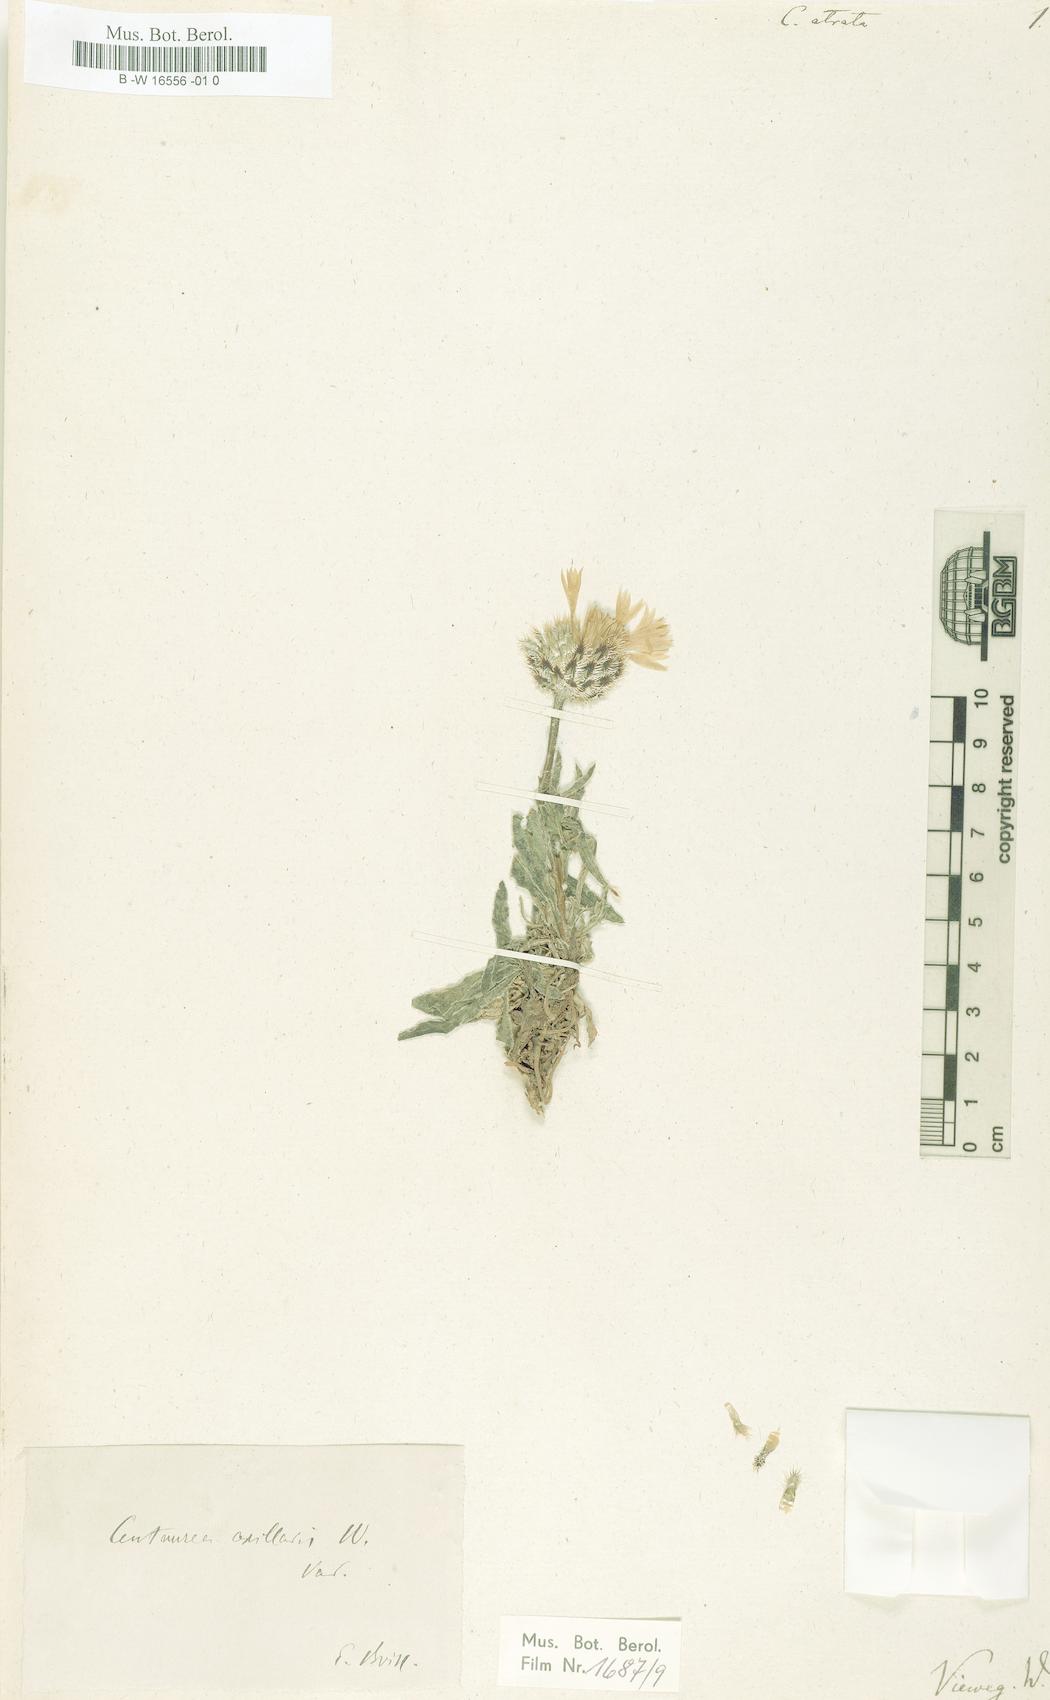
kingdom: Plantae
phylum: Tracheophyta
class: Magnoliopsida
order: Asterales
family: Asteraceae
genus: Centaurea
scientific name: Centaurea atrata
